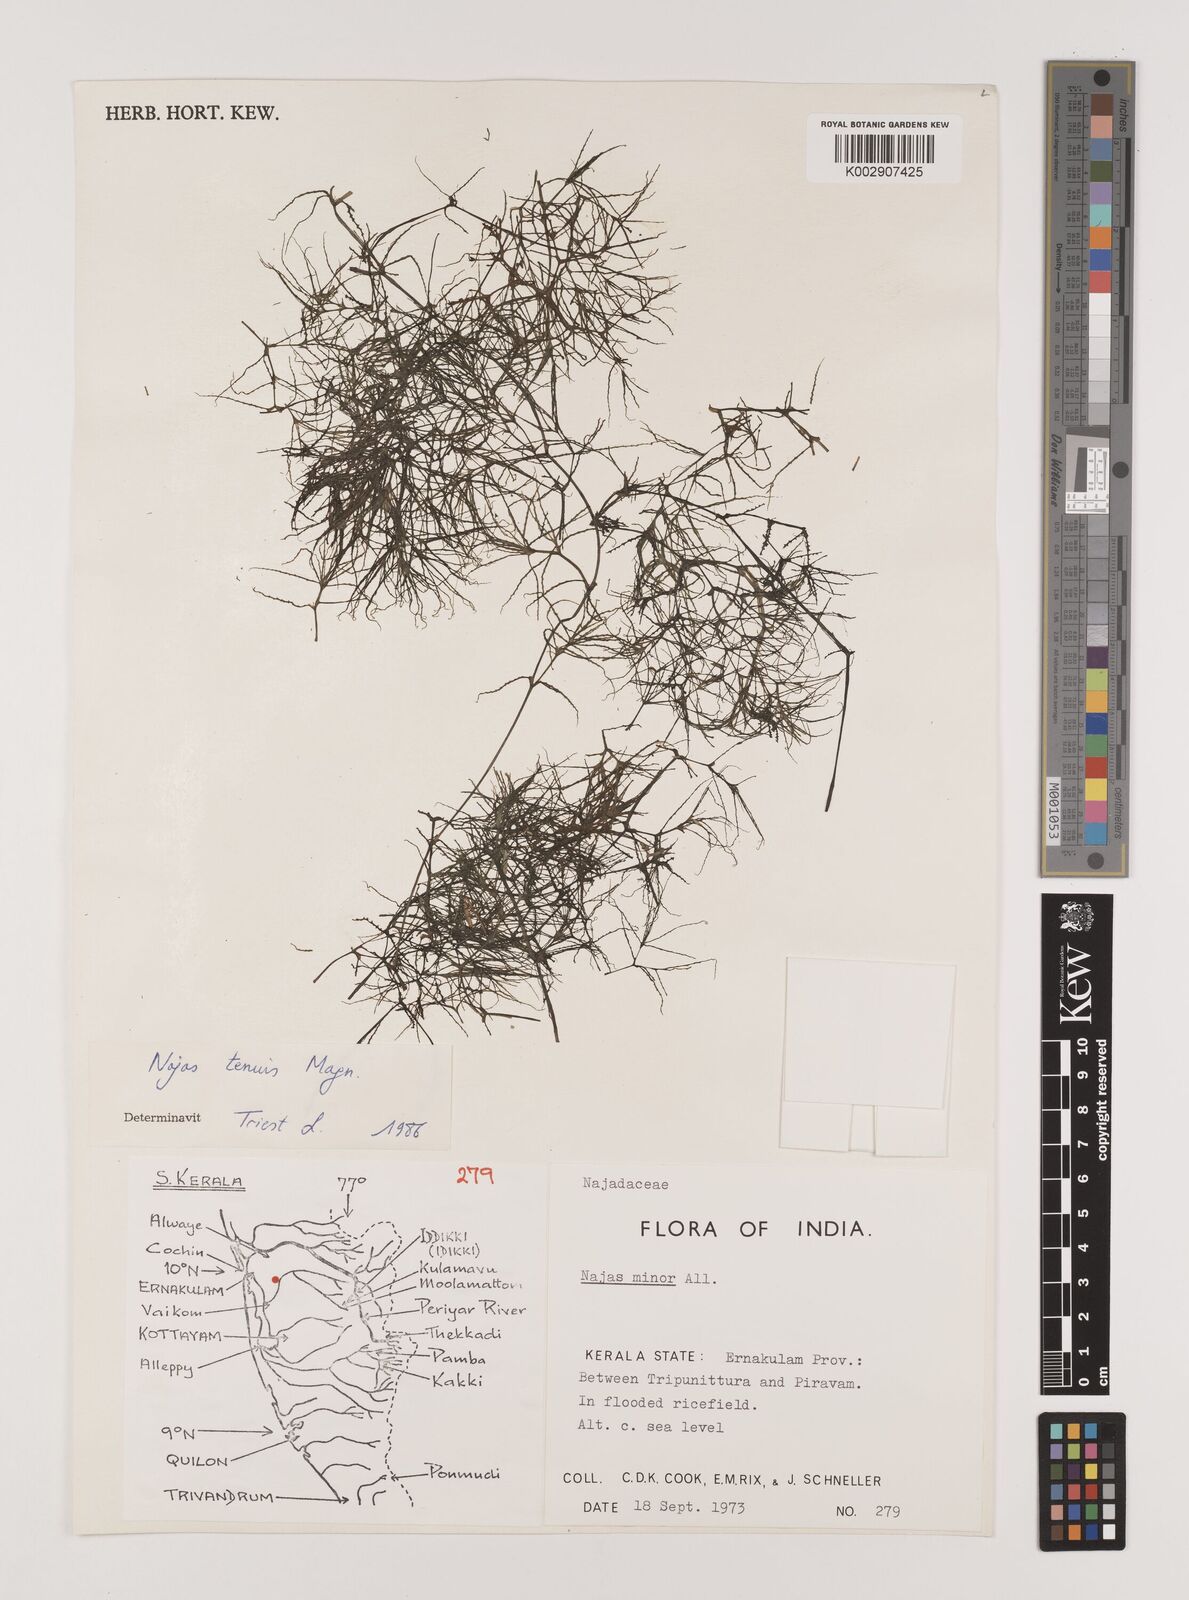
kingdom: Plantae
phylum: Tracheophyta
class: Liliopsida
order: Alismatales
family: Hydrocharitaceae
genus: Najas
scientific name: Najas indica
